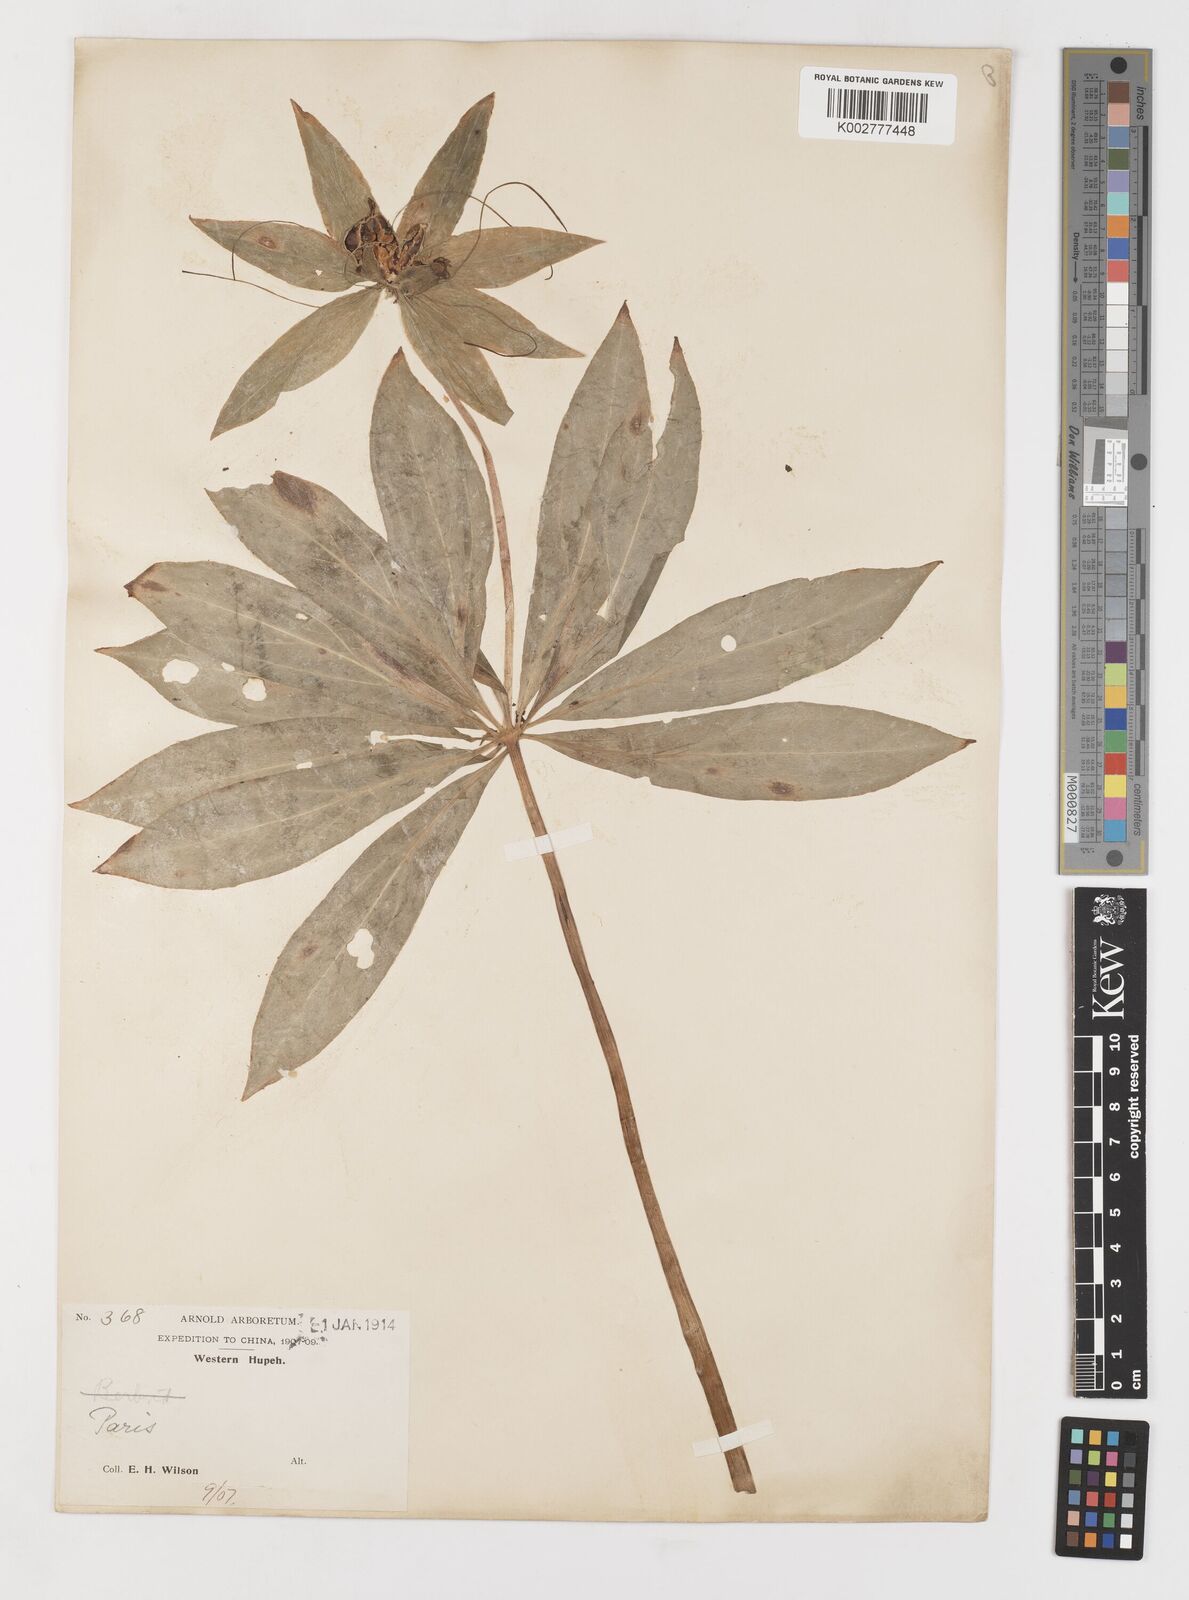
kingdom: Plantae
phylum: Tracheophyta
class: Liliopsida
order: Liliales
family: Melanthiaceae
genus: Paris
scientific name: Paris polyphylla
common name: Love apple
